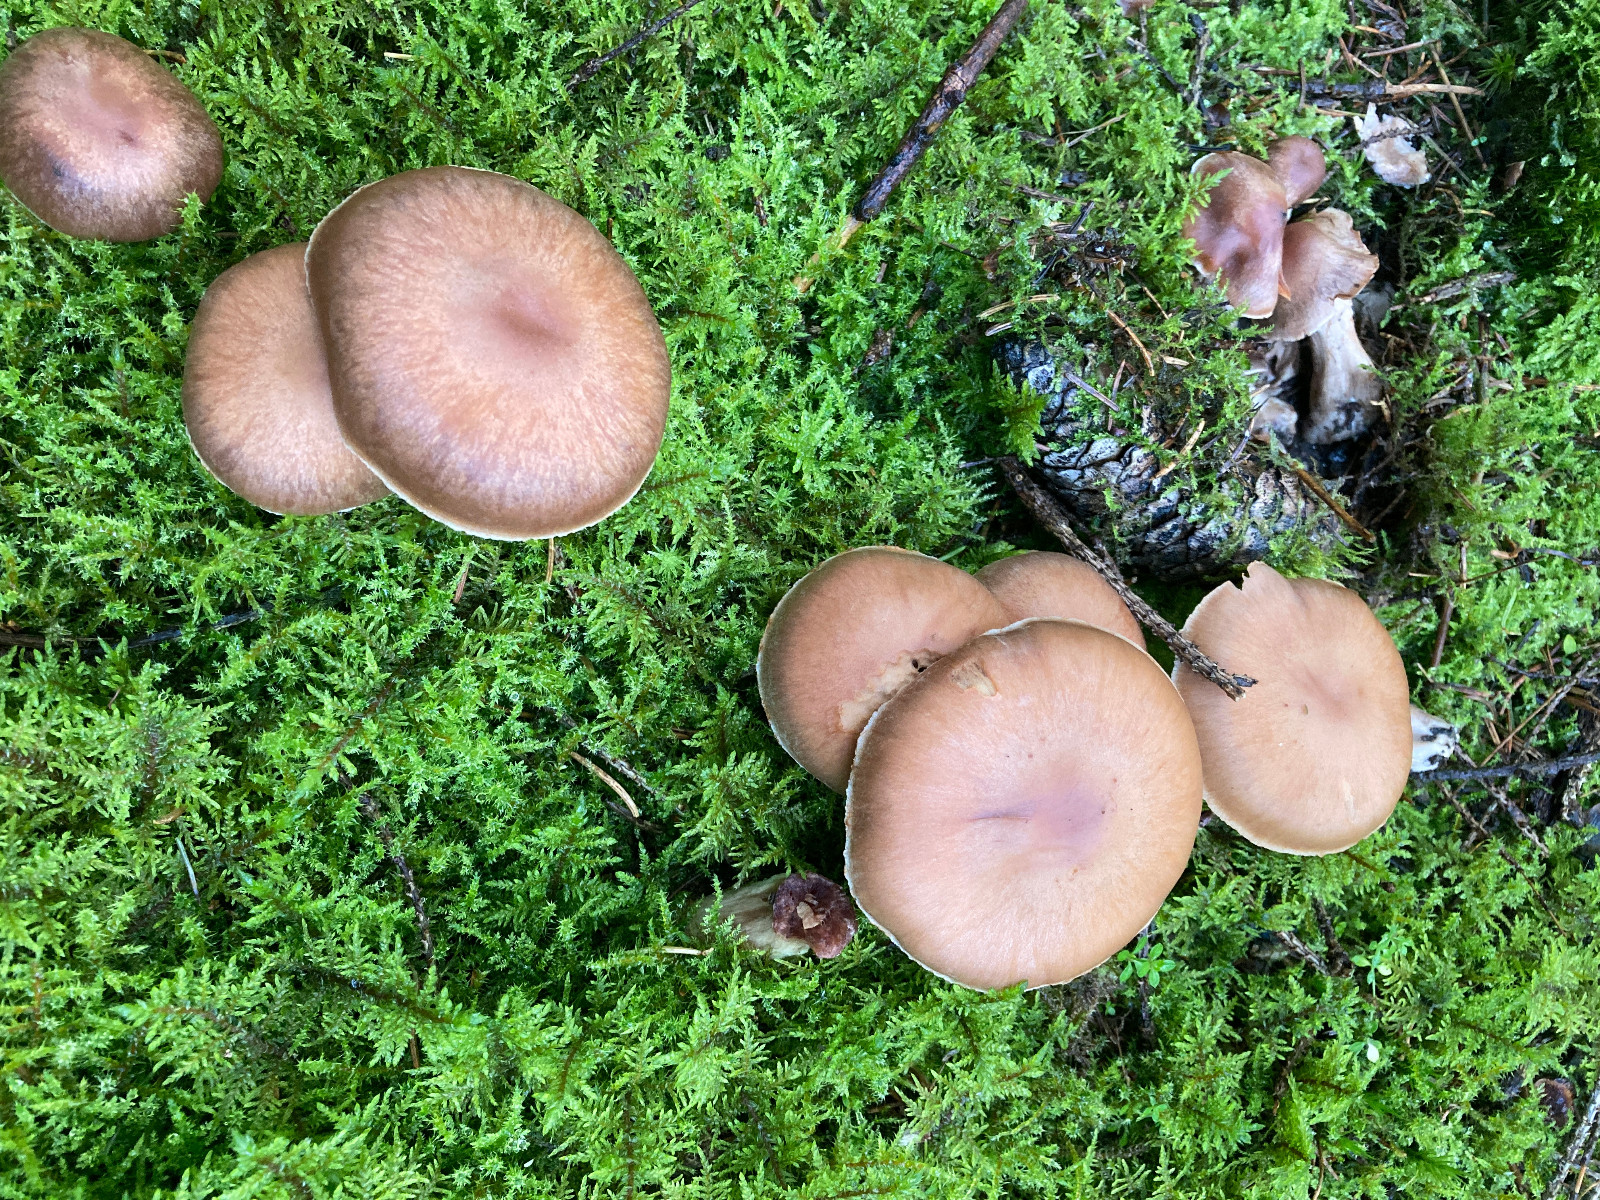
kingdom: Fungi
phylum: Basidiomycota
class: Agaricomycetes
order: Agaricales
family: Cortinariaceae
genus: Cortinarius
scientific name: Cortinarius dolabratus
